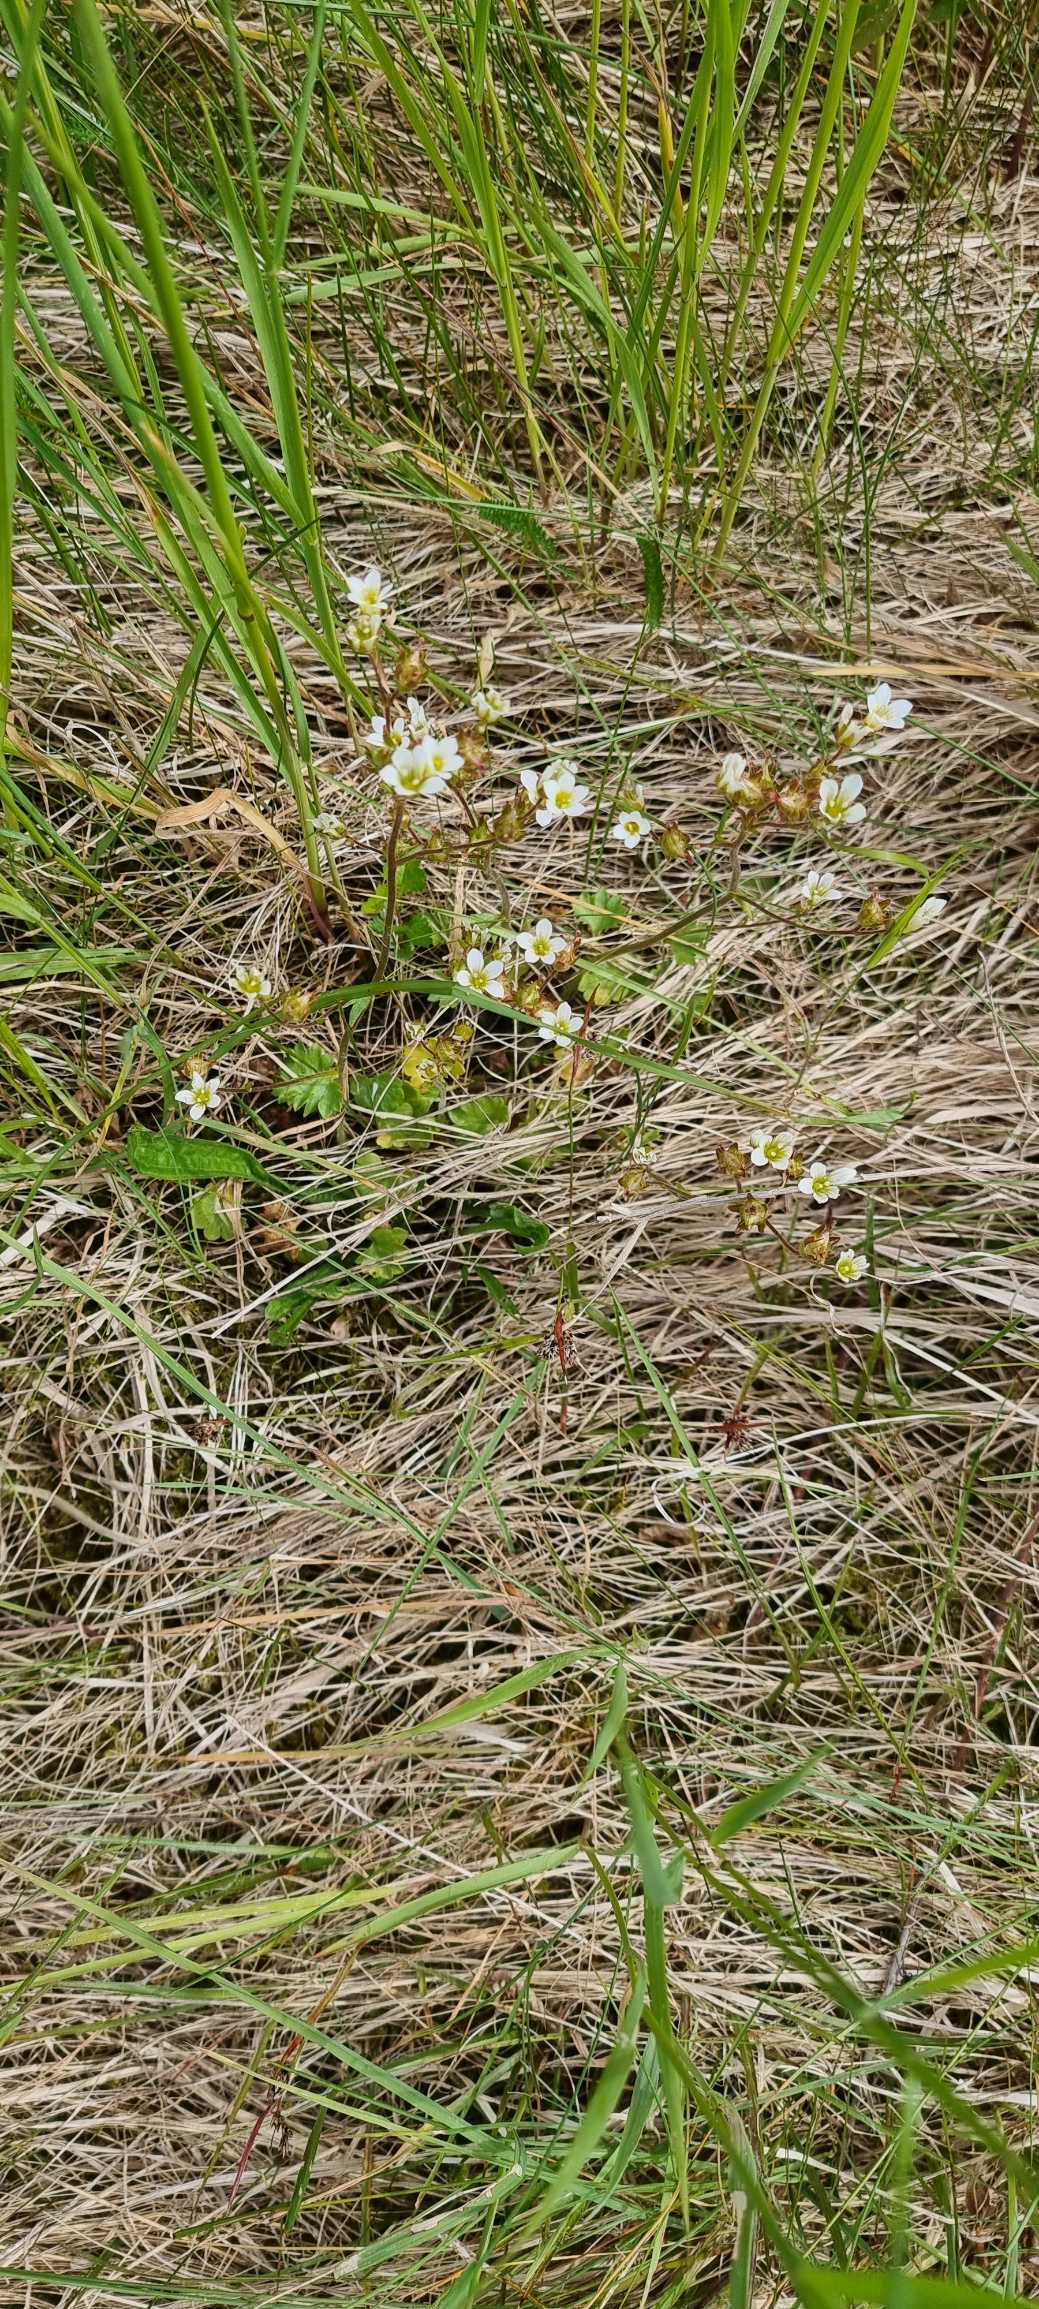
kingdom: Plantae
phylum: Tracheophyta
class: Magnoliopsida
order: Saxifragales
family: Saxifragaceae
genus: Saxifraga
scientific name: Saxifraga granulata
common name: Kornet stenbræk
